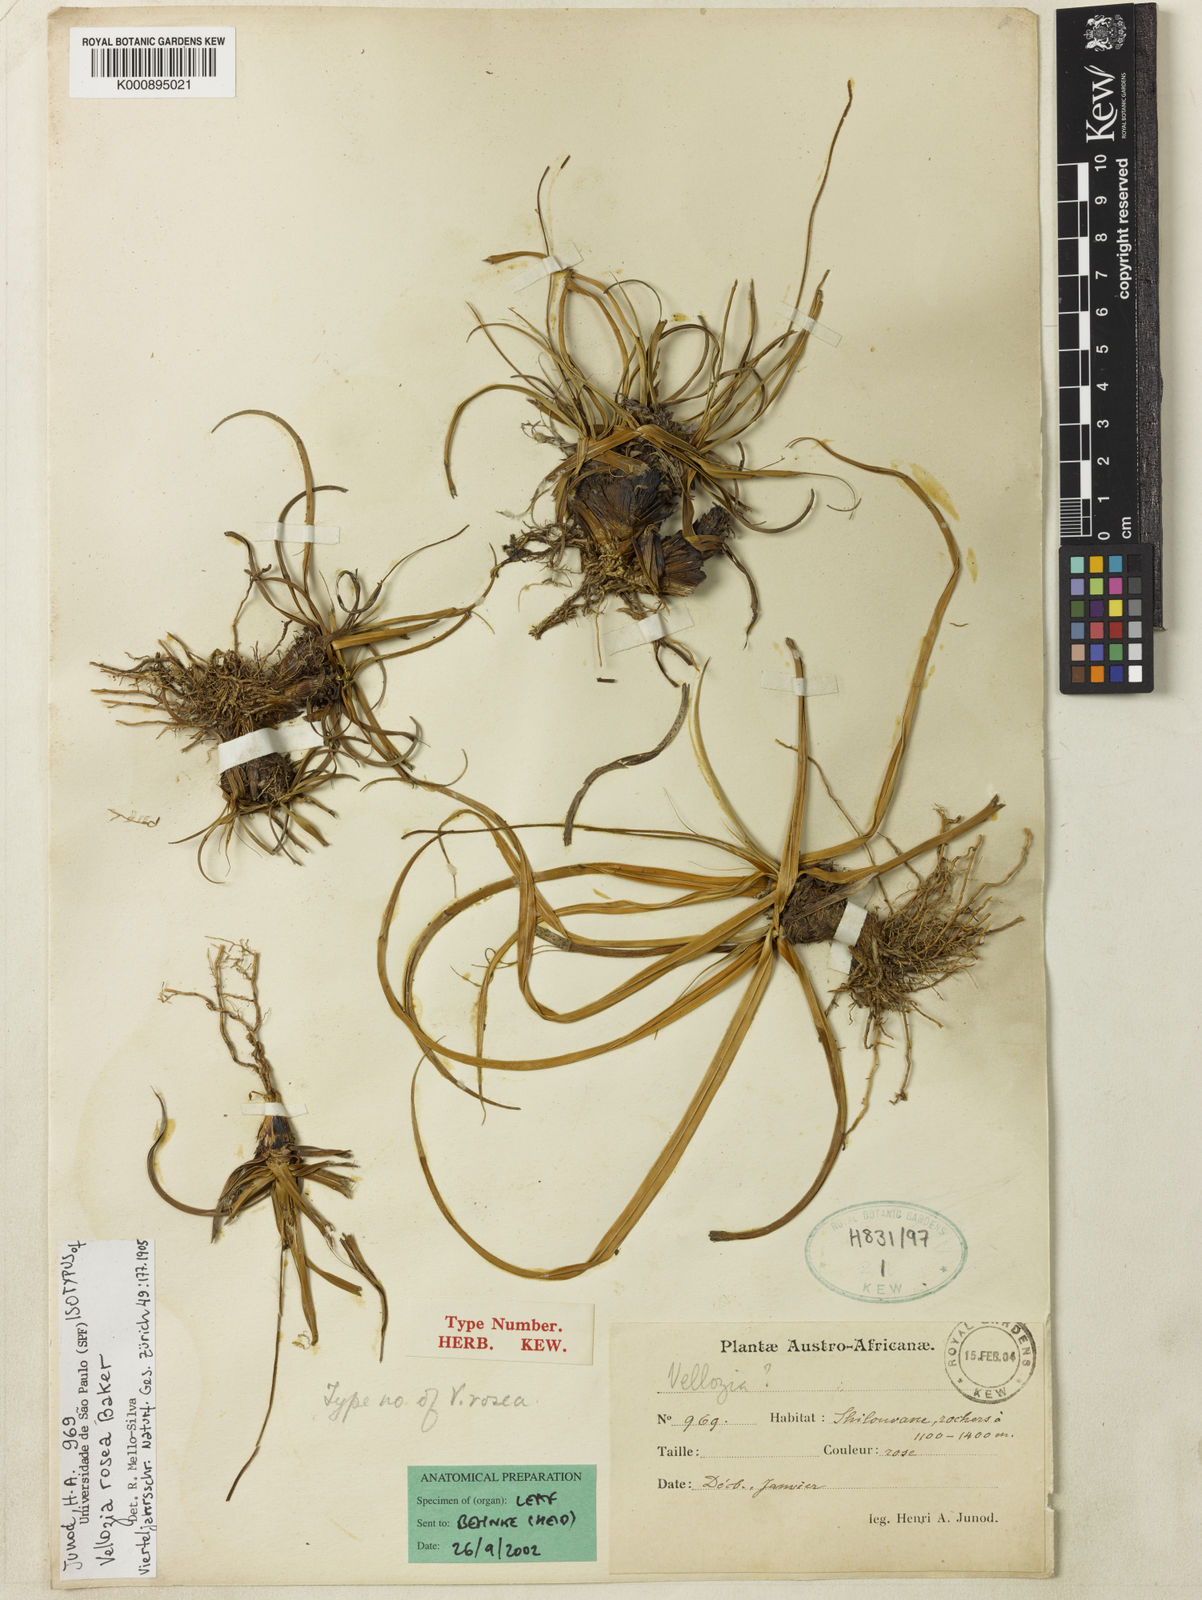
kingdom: Plantae
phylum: Tracheophyta
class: Liliopsida
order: Pandanales
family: Velloziaceae
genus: Xerophyta
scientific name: Xerophyta rosea
